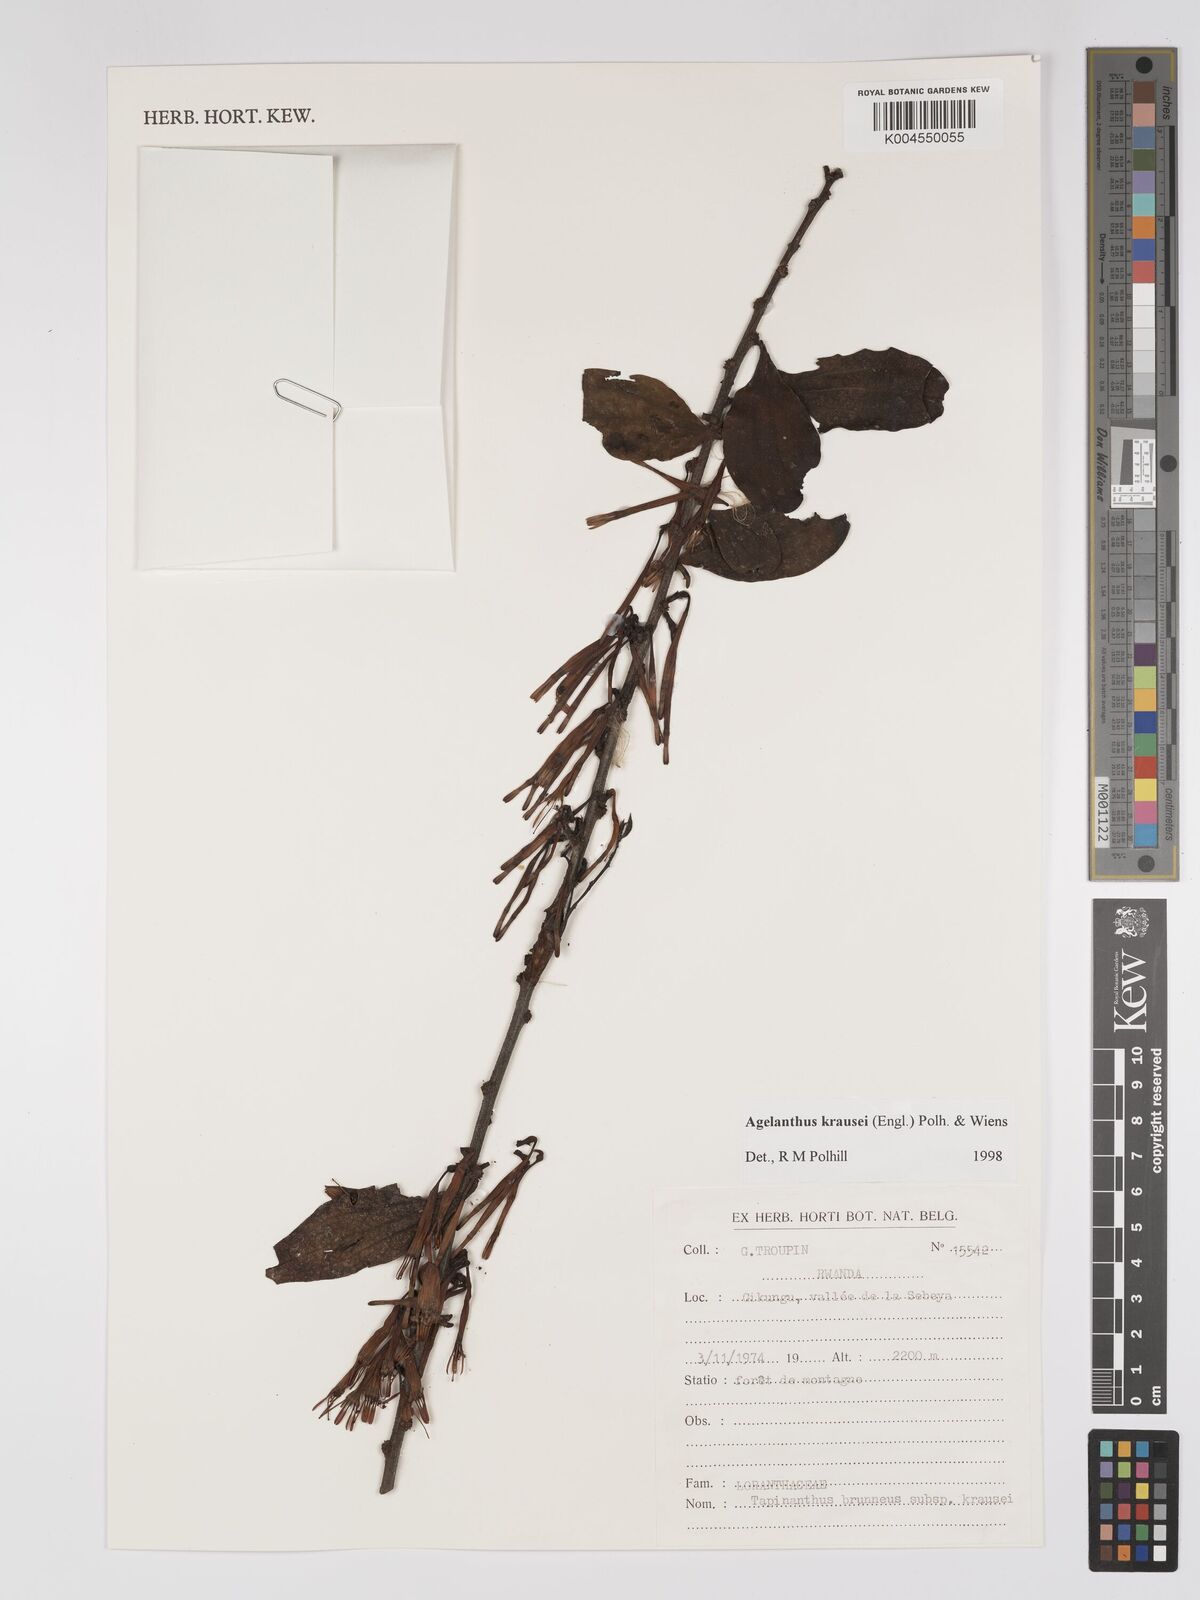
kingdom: Plantae
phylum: Tracheophyta
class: Magnoliopsida
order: Santalales
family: Loranthaceae
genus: Agelanthus
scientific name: Agelanthus krausei
